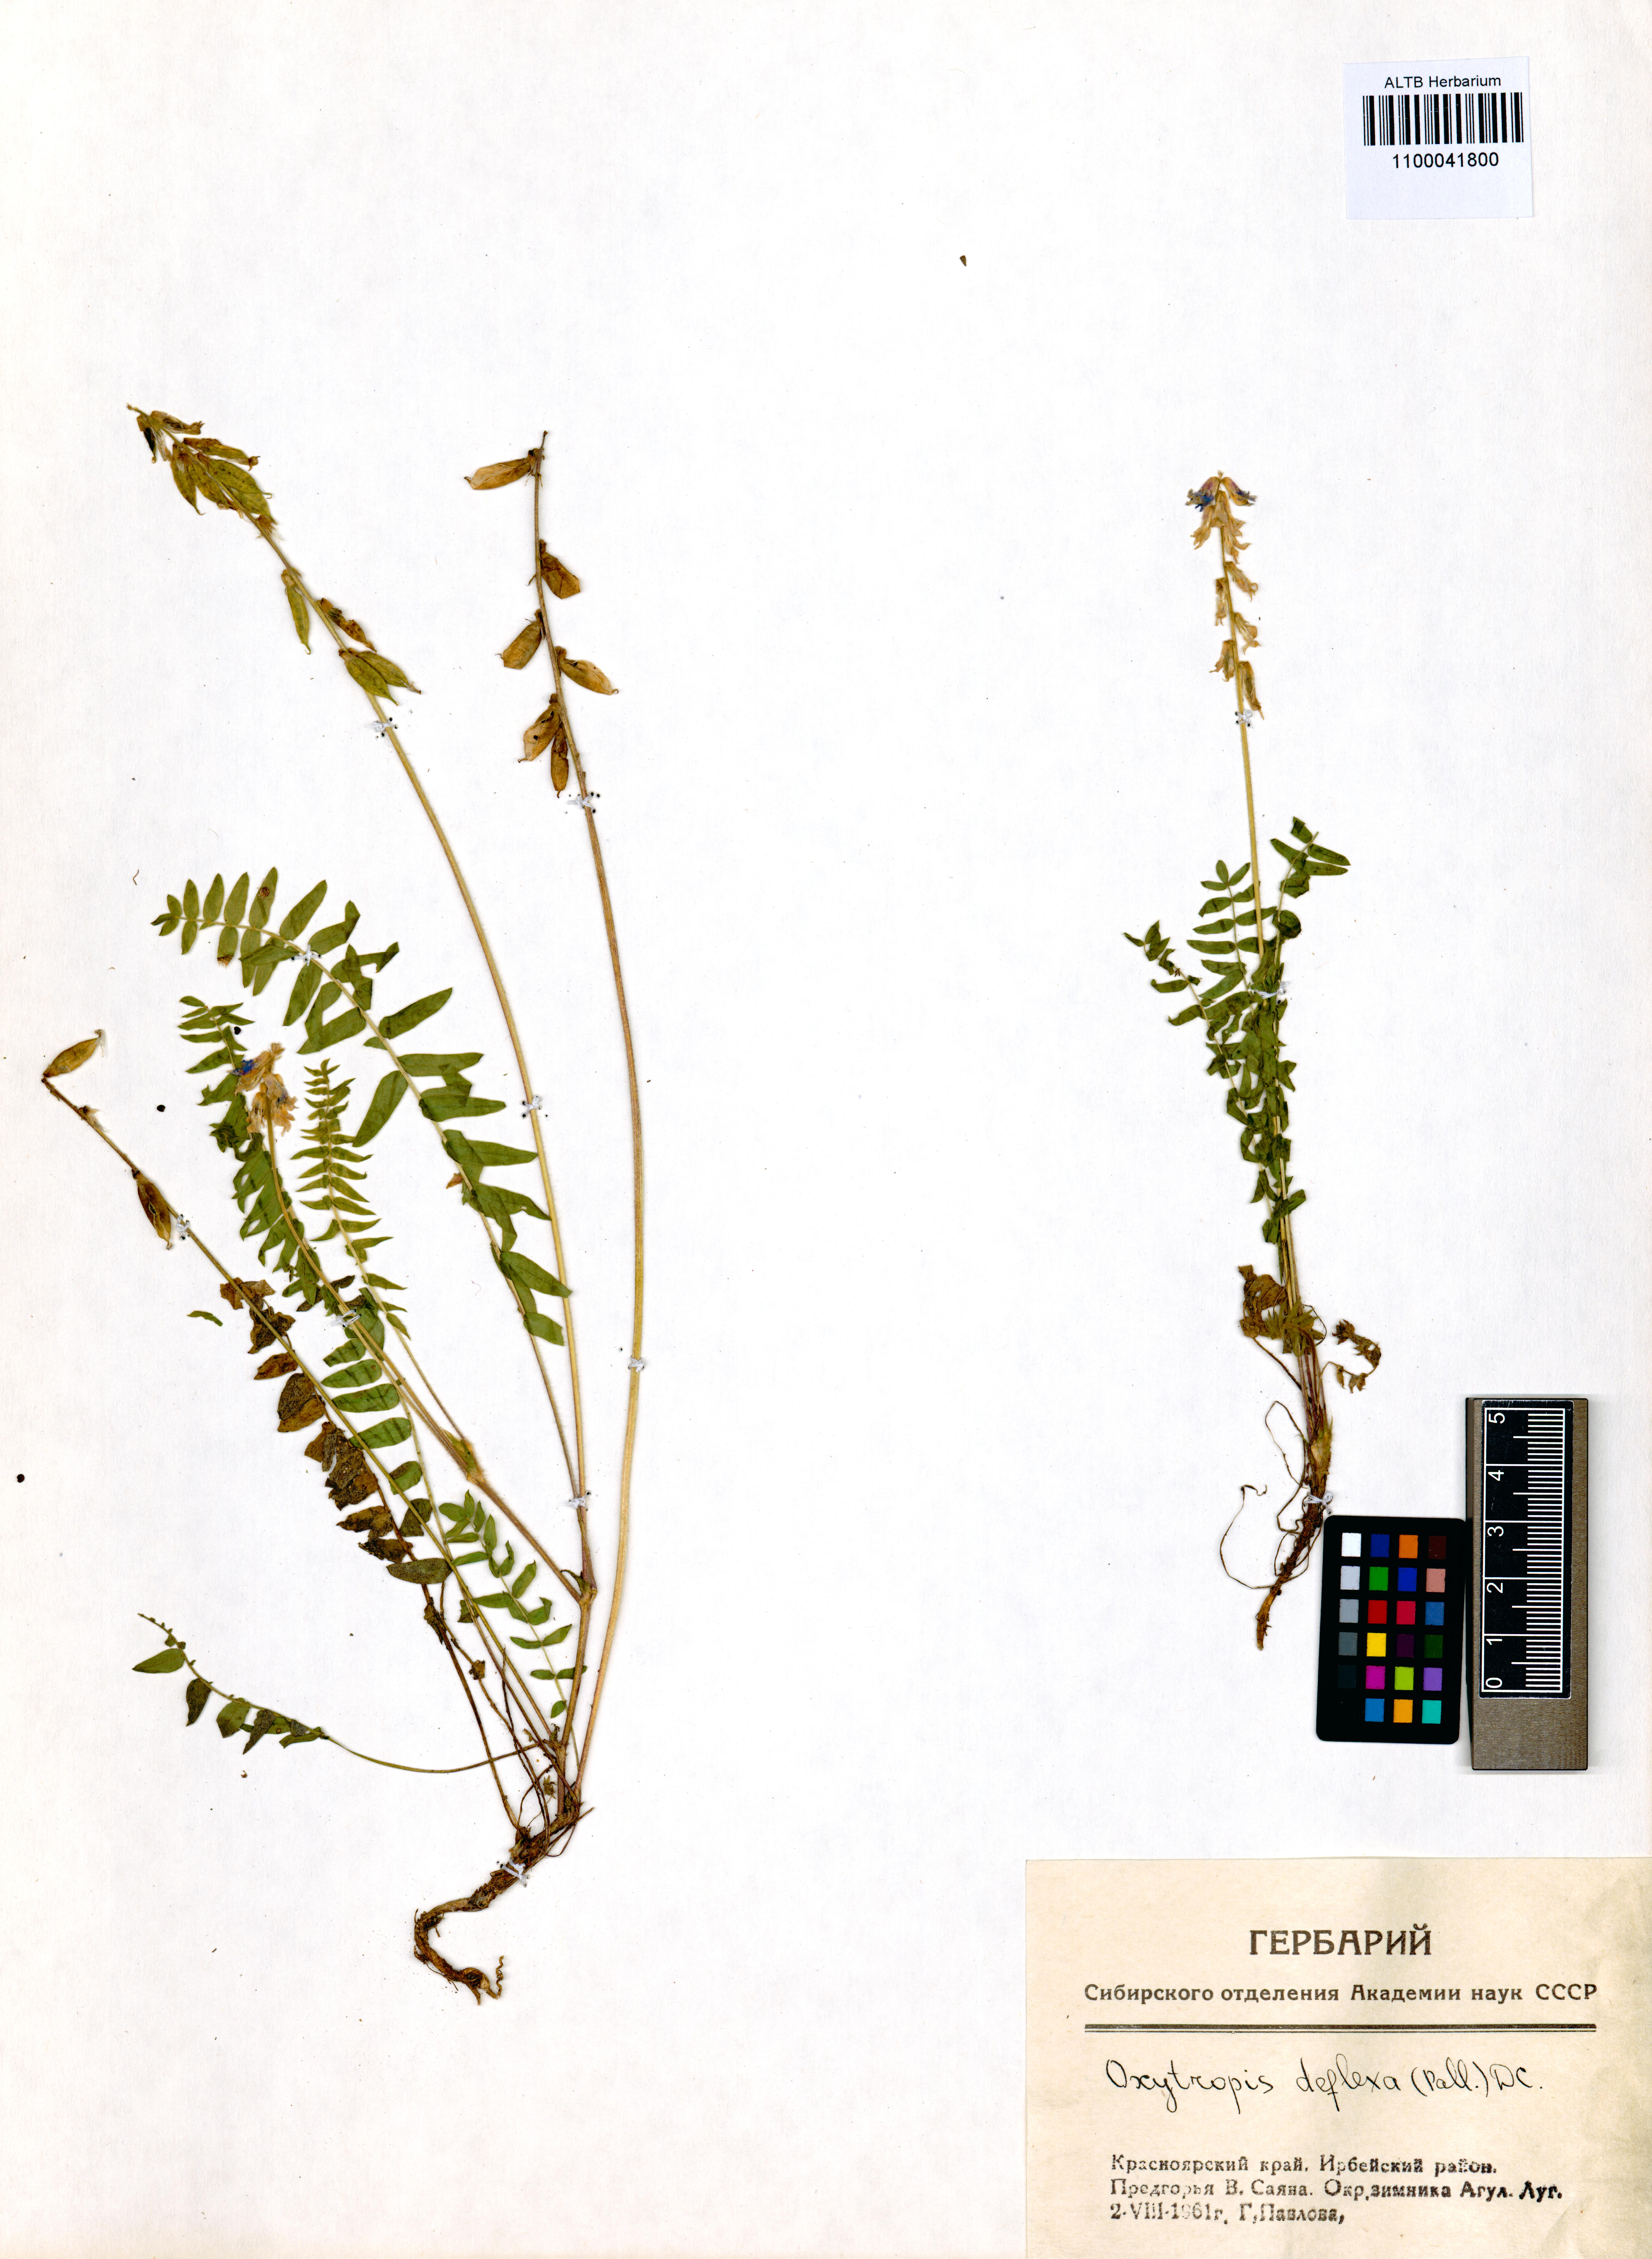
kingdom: Plantae
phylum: Tracheophyta
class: Magnoliopsida
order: Fabales
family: Fabaceae
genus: Oxytropis
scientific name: Oxytropis deflexa
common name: Stemmed oxytrope
